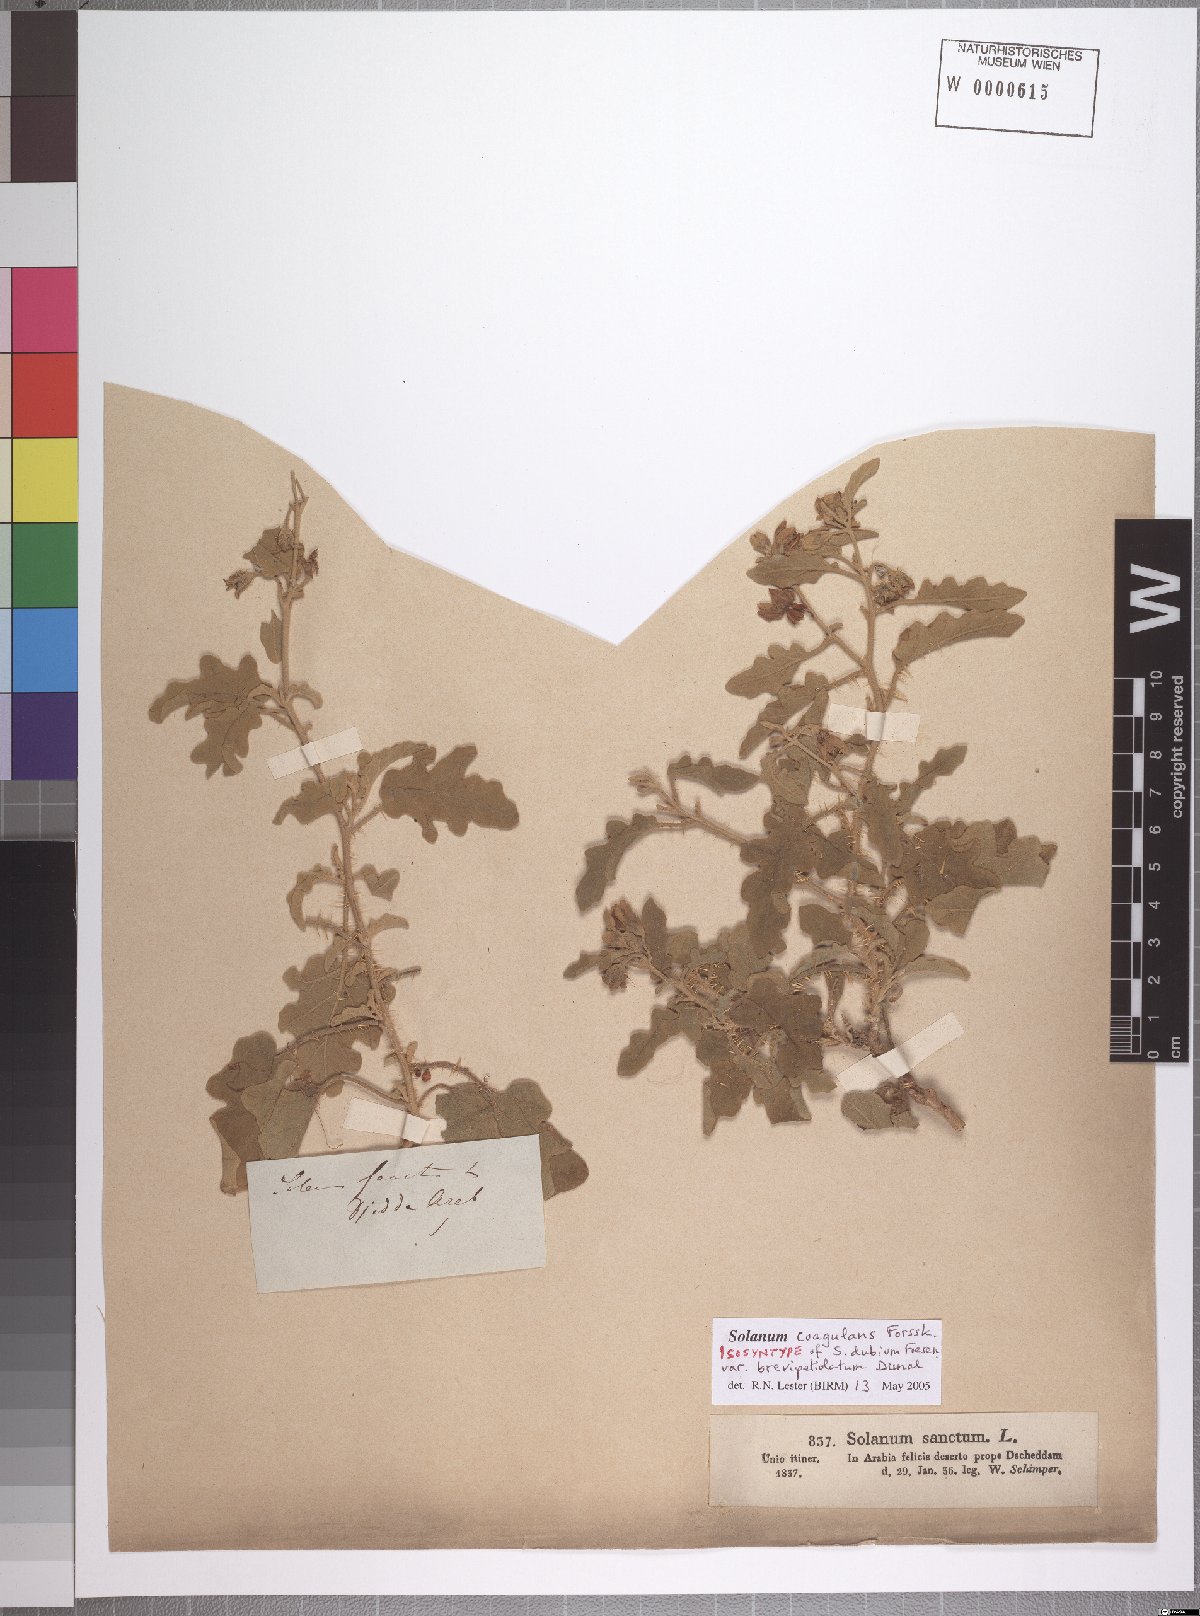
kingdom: Plantae
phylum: Tracheophyta
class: Magnoliopsida
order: Solanales
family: Solanaceae
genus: Solanum
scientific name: Solanum coagulans
